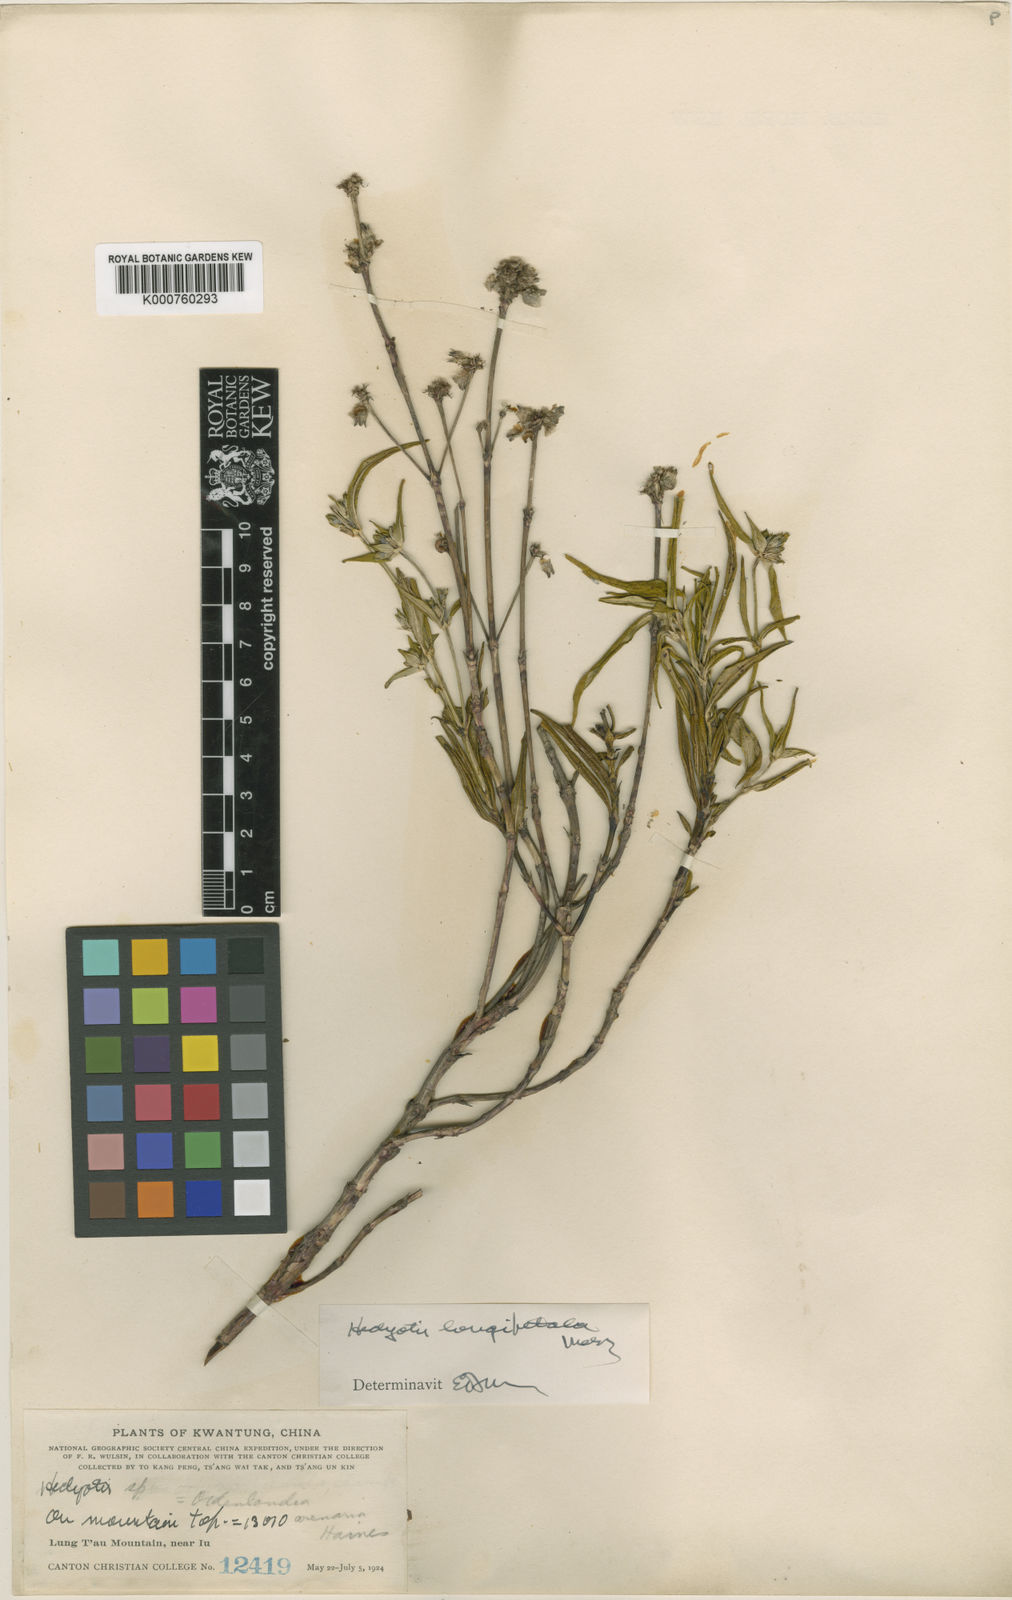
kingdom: Plantae
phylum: Tracheophyta
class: Magnoliopsida
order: Gentianales
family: Rubiaceae
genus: Hedyotis
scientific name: Hedyotis longipetala
